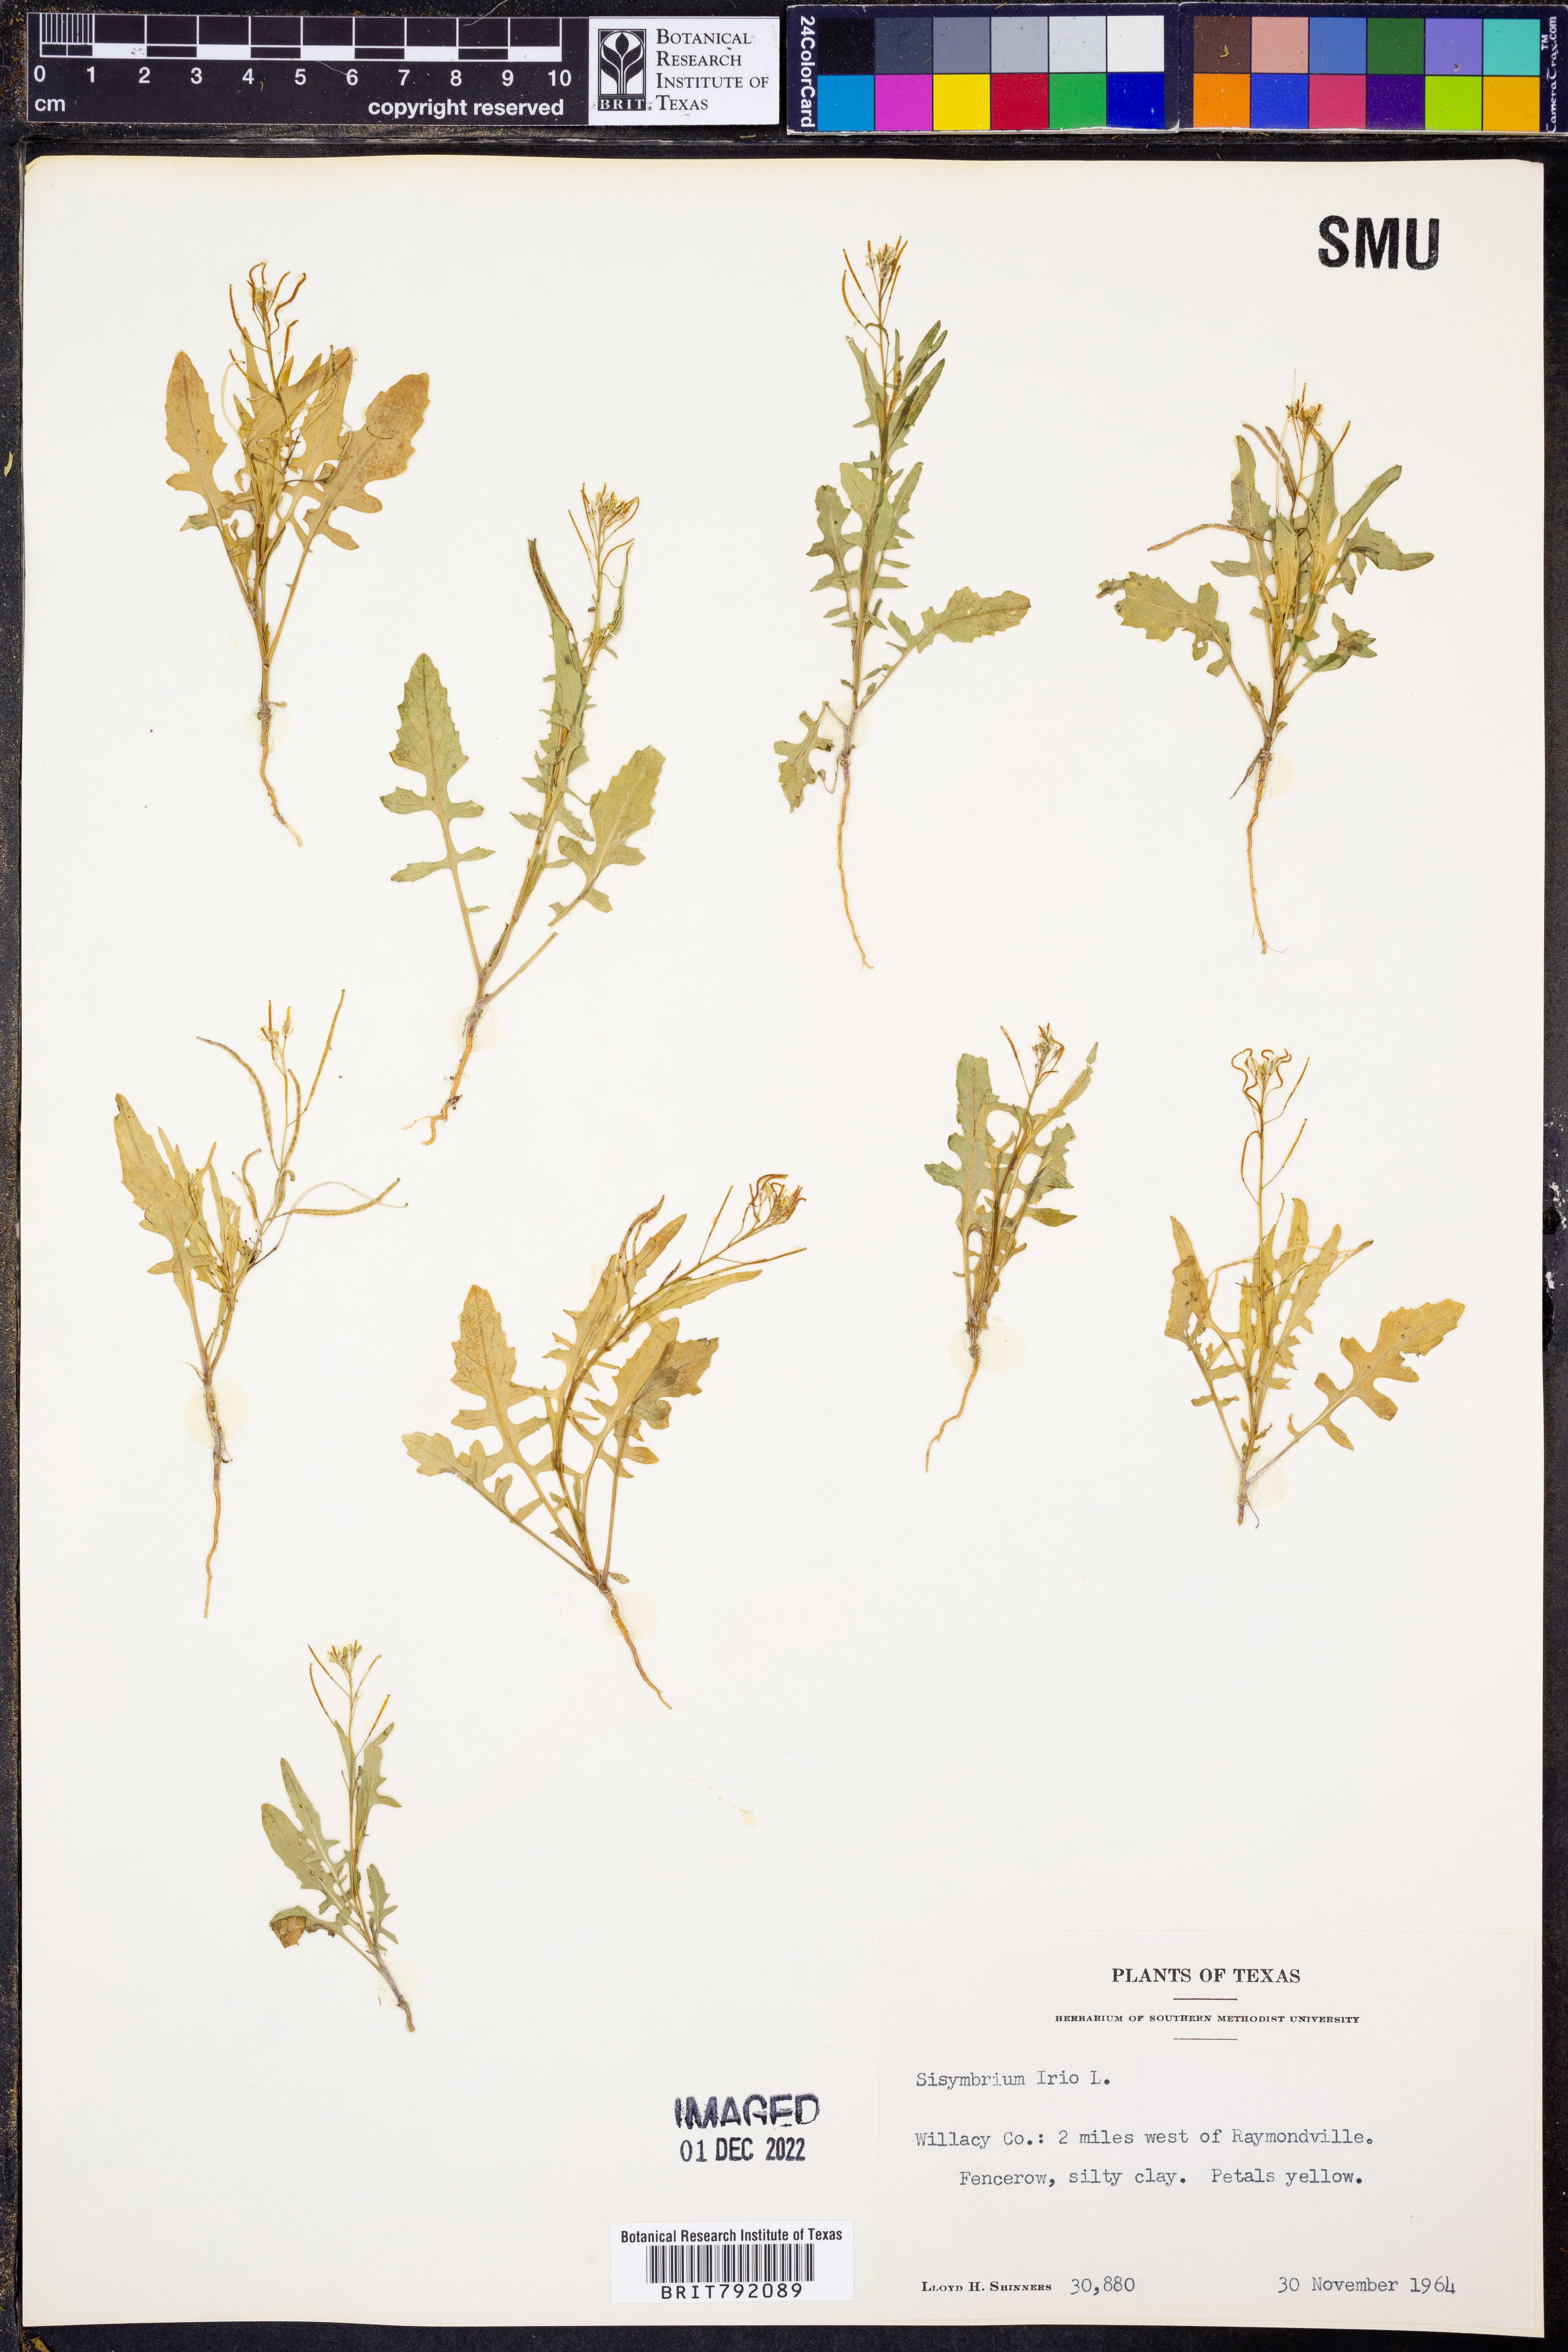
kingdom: Plantae
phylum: Tracheophyta
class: Magnoliopsida
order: Brassicales
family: Brassicaceae
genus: Sisymbrium
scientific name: Sisymbrium irio
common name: London rocket
